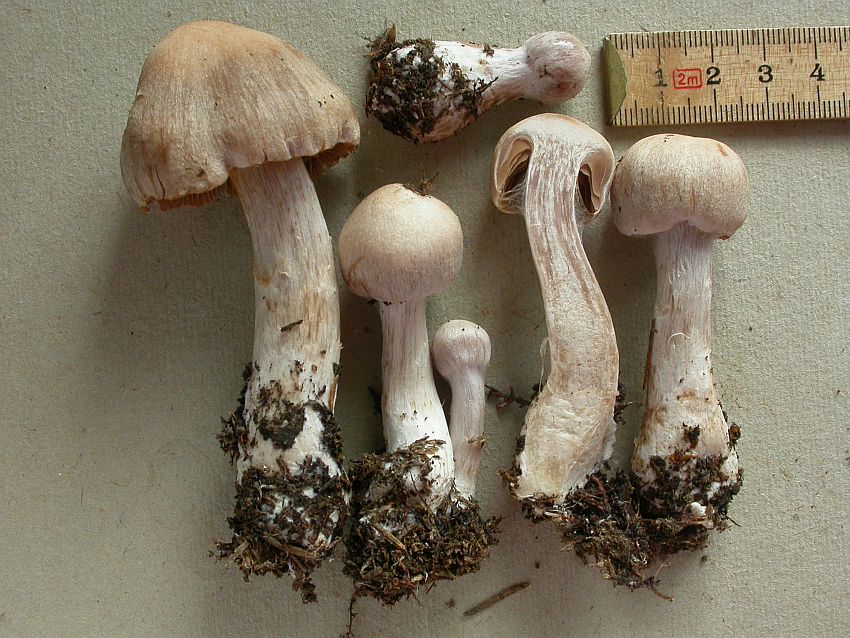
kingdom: Fungi
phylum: Basidiomycota
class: Agaricomycetes
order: Agaricales
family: Cortinariaceae
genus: Cortinarius
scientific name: Cortinarius malachius
